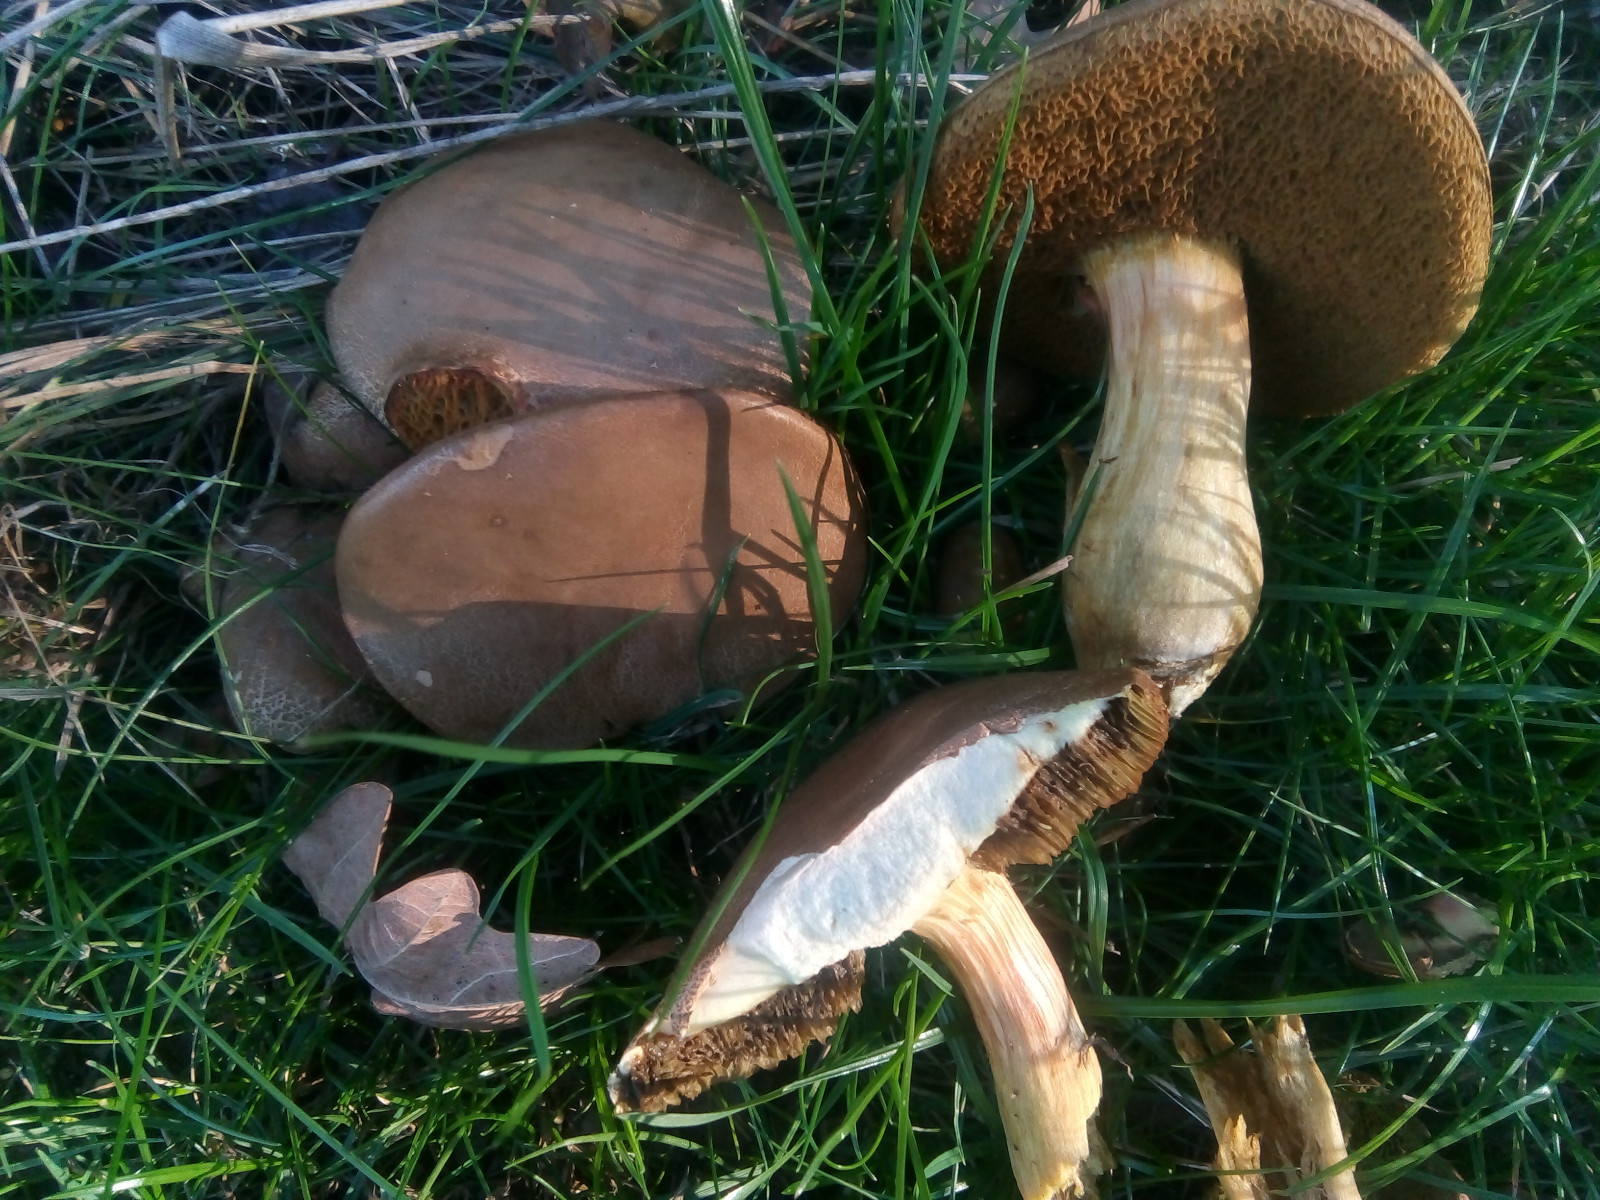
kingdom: Fungi
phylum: Basidiomycota
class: Agaricomycetes
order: Boletales
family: Boletaceae
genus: Hortiboletus
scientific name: Hortiboletus engelii
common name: fersken-rørhat
